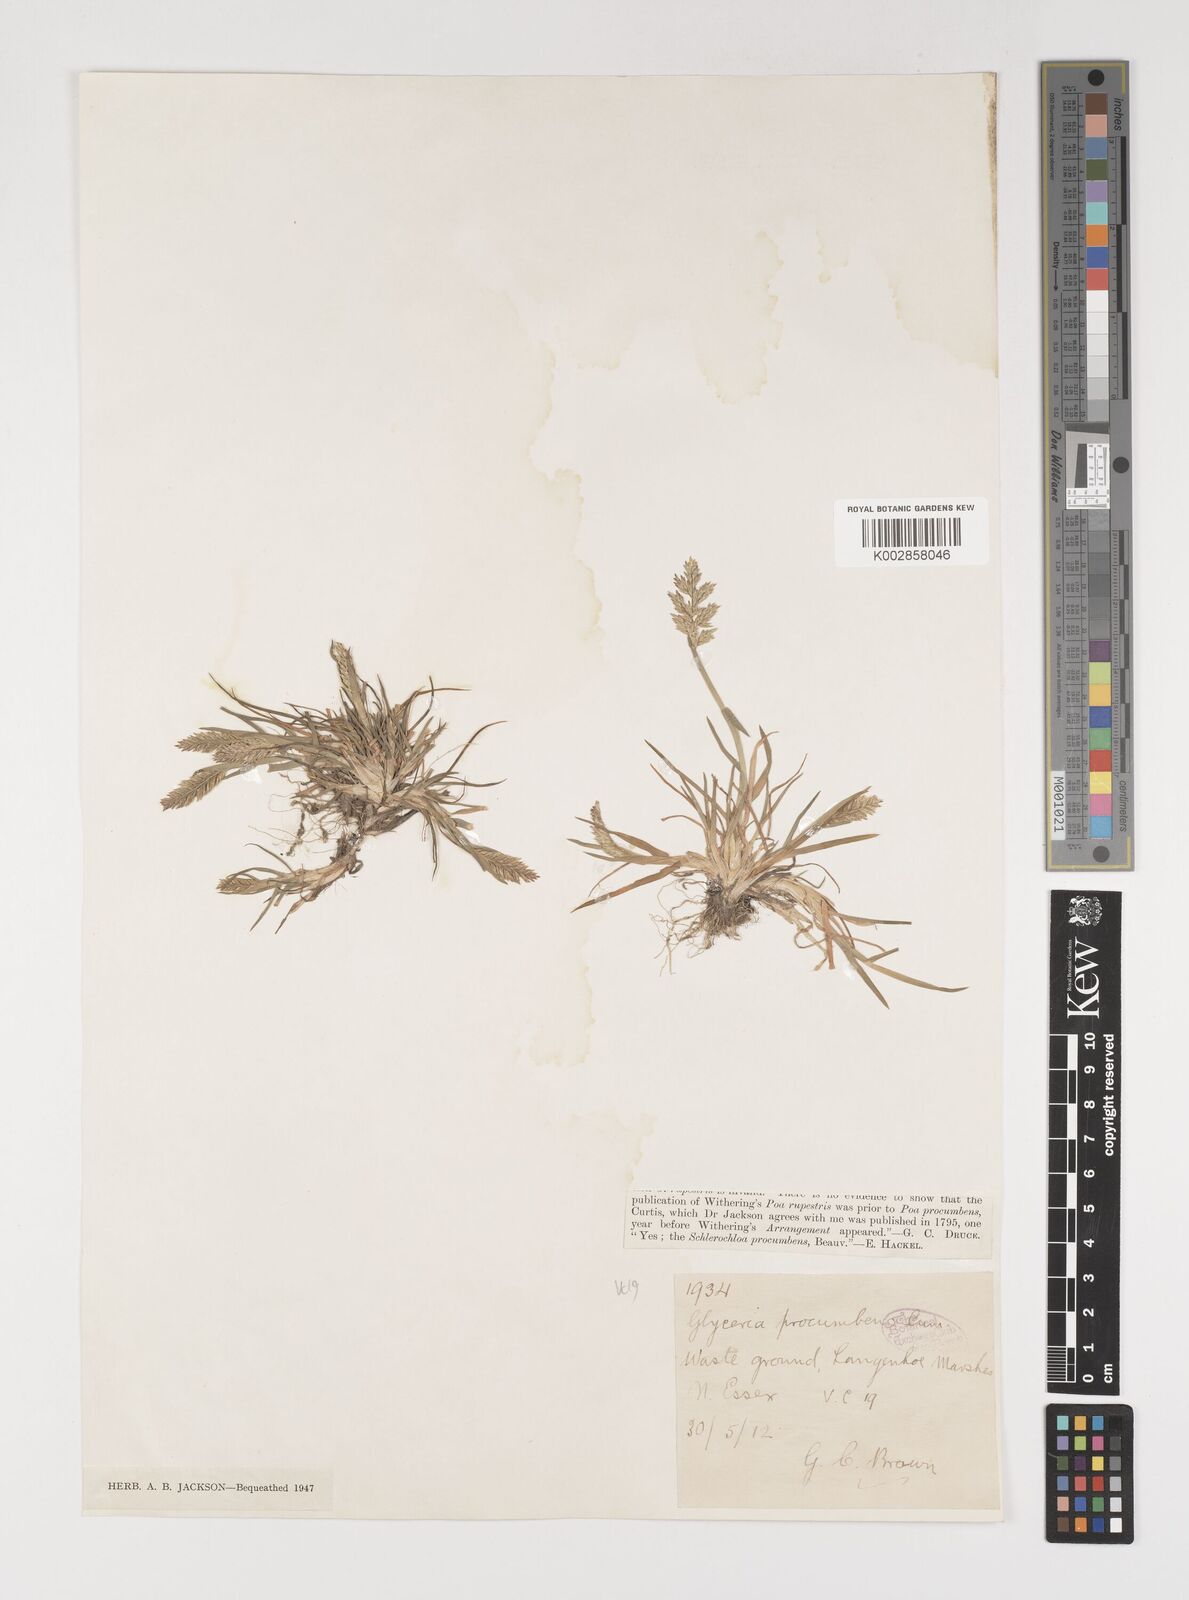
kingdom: Plantae
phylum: Tracheophyta
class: Liliopsida
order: Poales
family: Poaceae
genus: Puccinellia
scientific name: Puccinellia rupestris
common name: Stiff saltmarsh-grass
